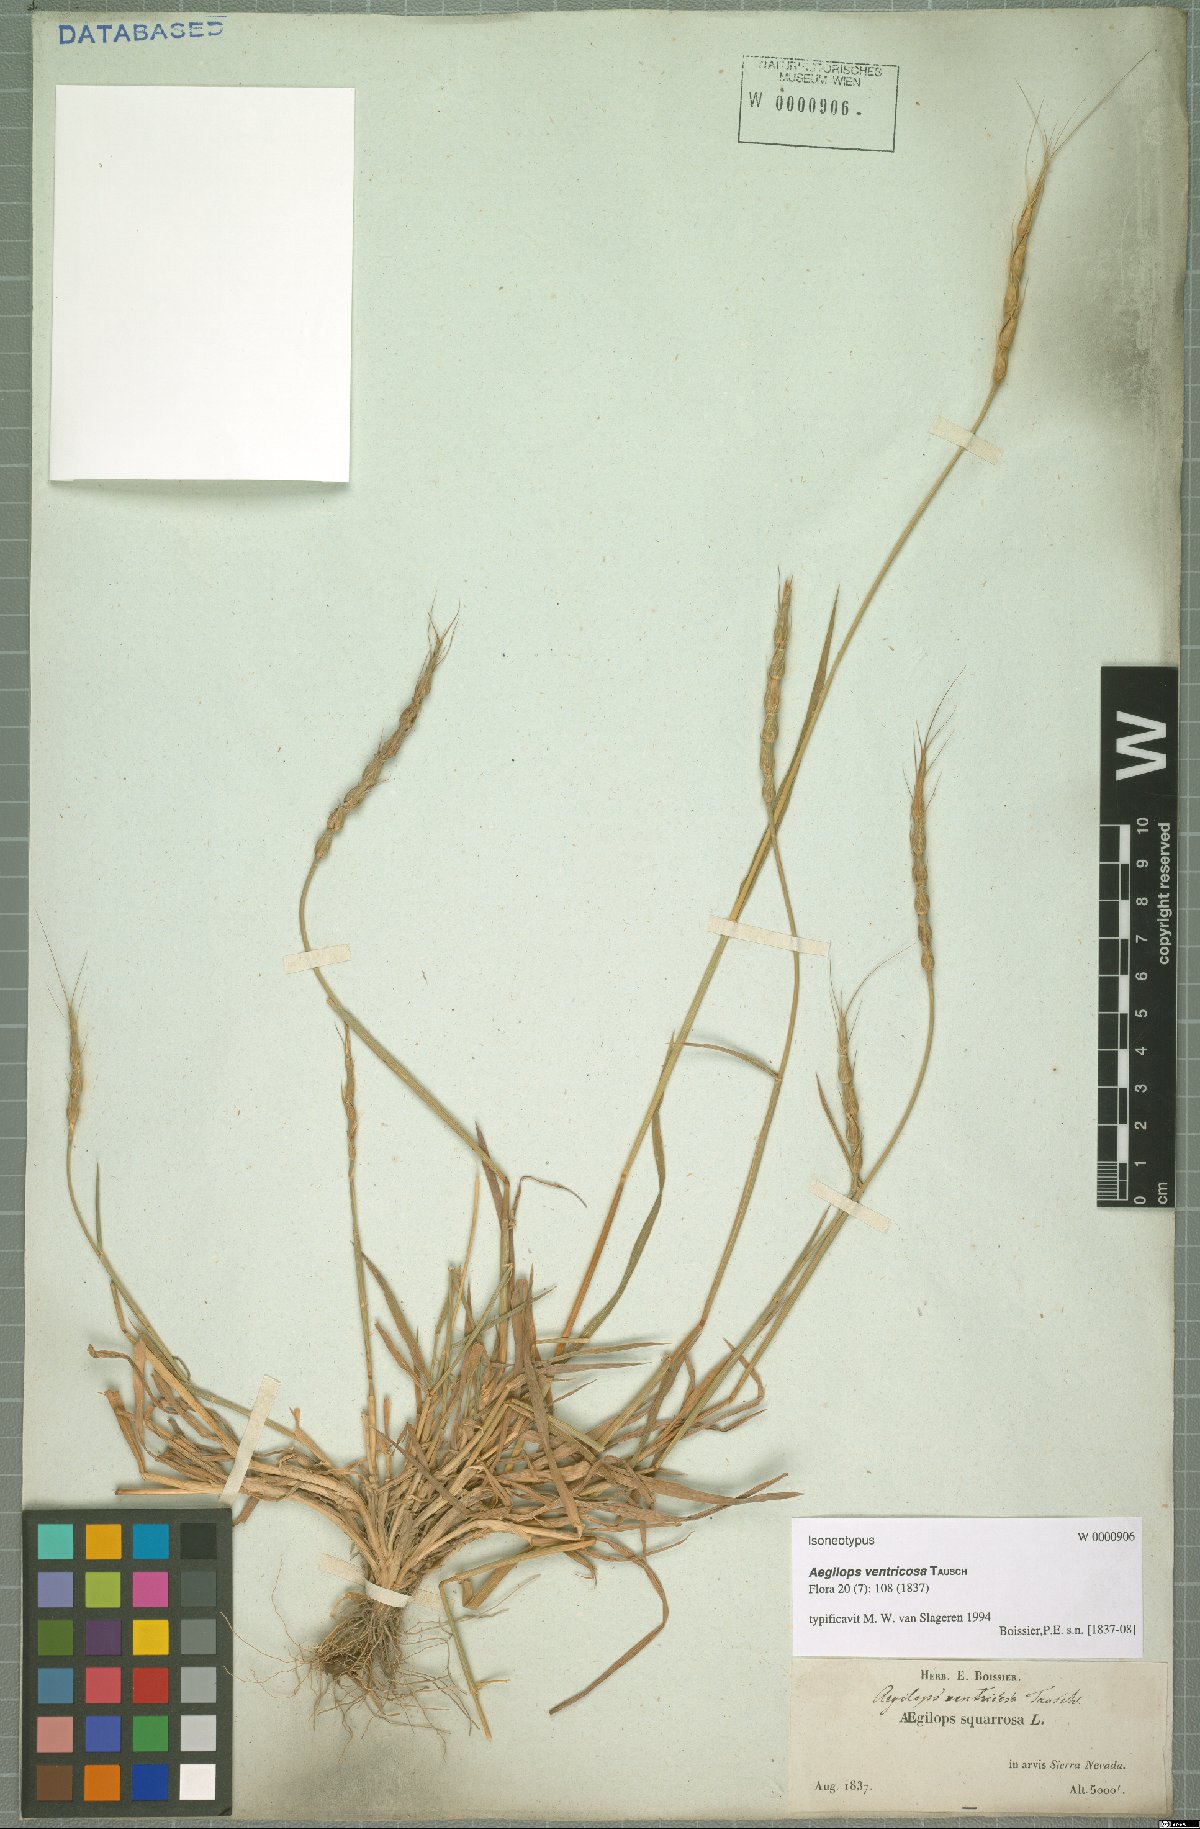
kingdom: Plantae
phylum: Tracheophyta
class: Liliopsida
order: Poales
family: Poaceae
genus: Aegilops
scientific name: Aegilops ventricosa
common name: Swollen goat grass
